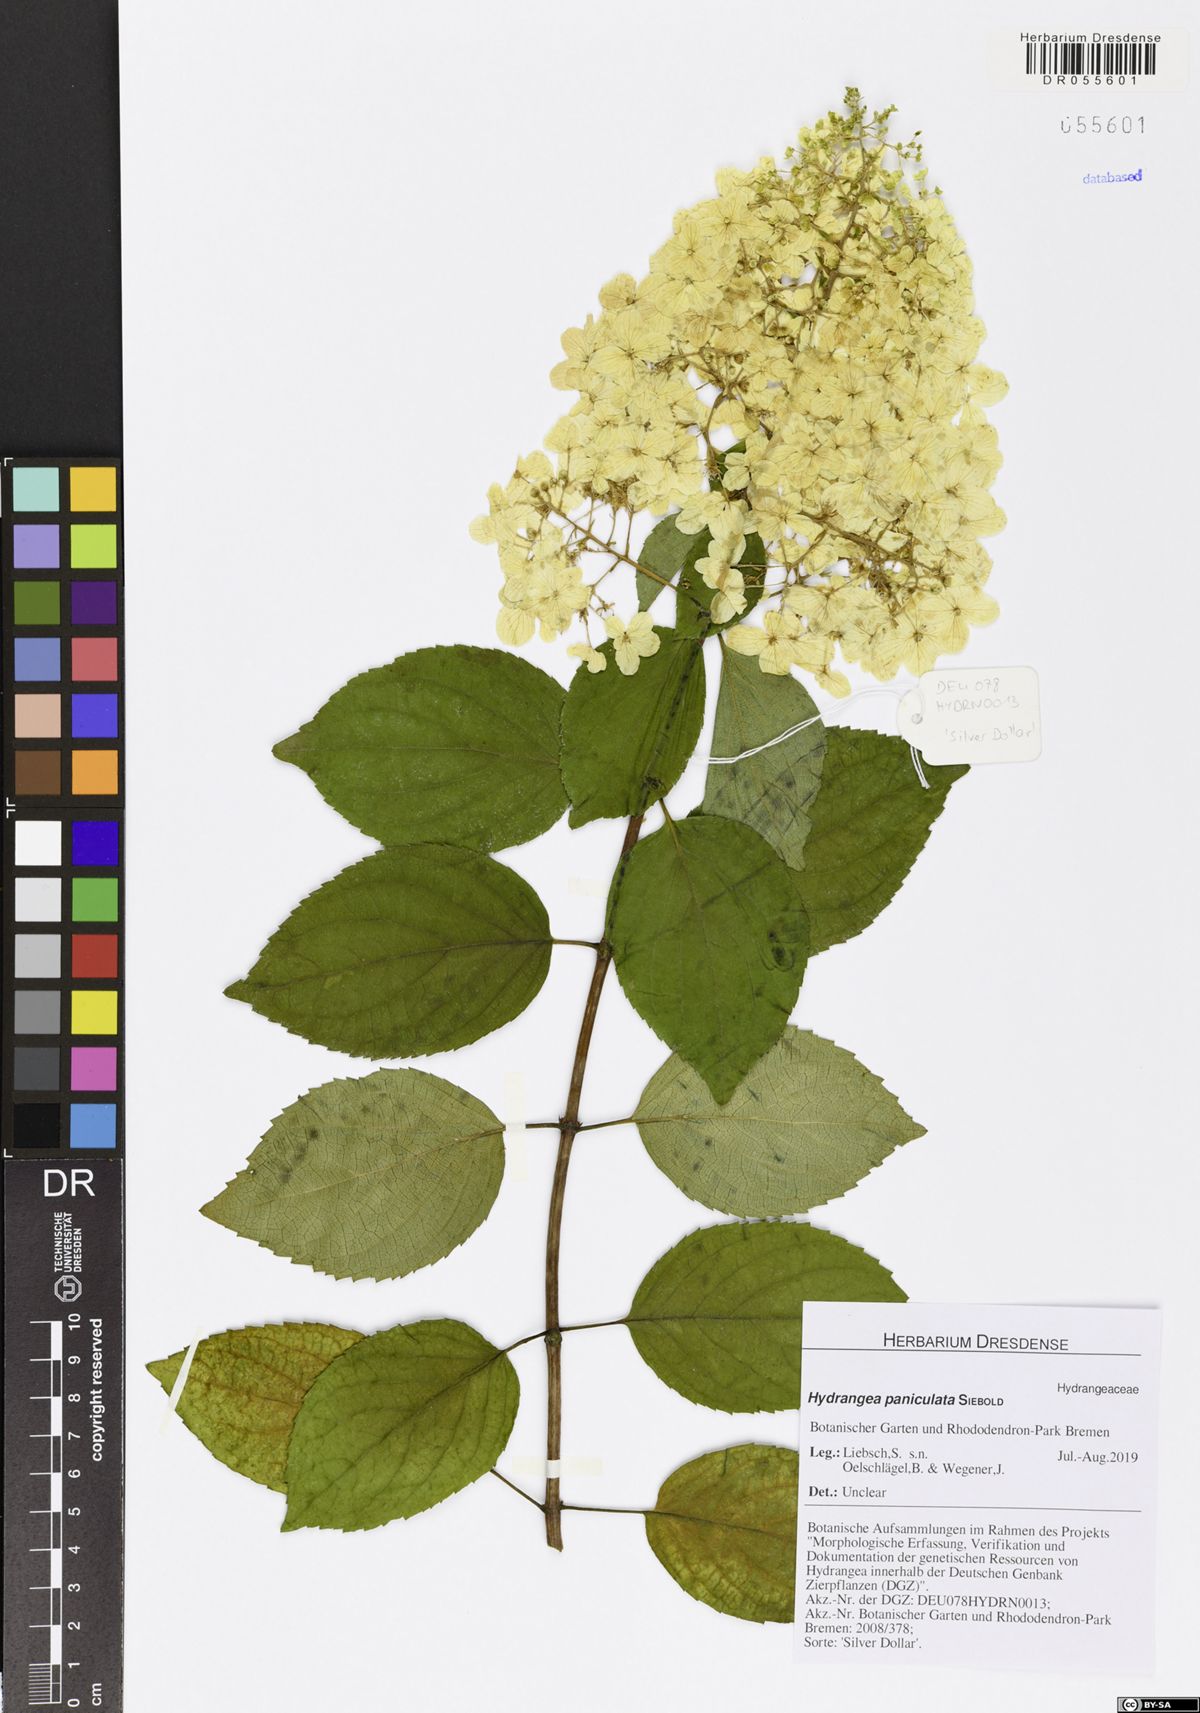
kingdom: Plantae
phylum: Tracheophyta
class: Magnoliopsida
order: Cornales
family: Hydrangeaceae
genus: Hydrangea
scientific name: Hydrangea paniculata
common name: Panicled hydrangea
